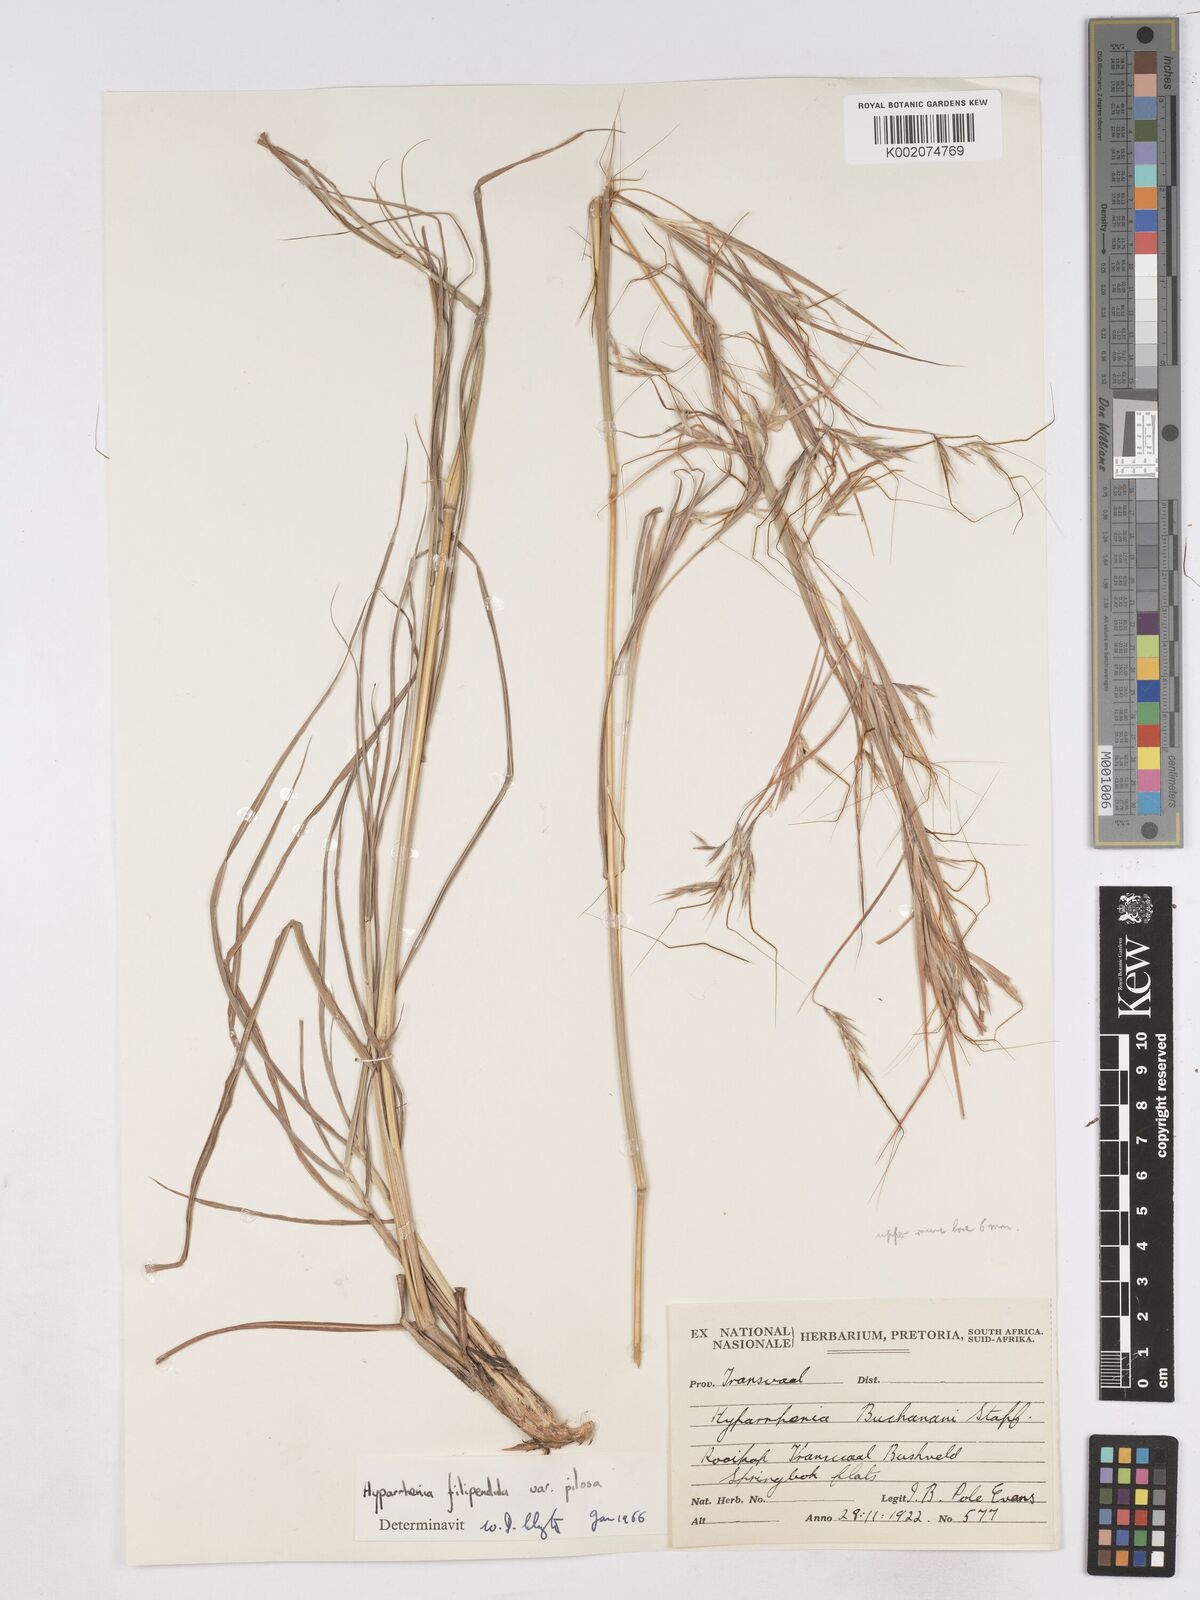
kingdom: Plantae
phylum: Tracheophyta
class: Liliopsida
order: Poales
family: Poaceae
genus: Hyparrhenia
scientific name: Hyparrhenia filipendula
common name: Tambookie grass
